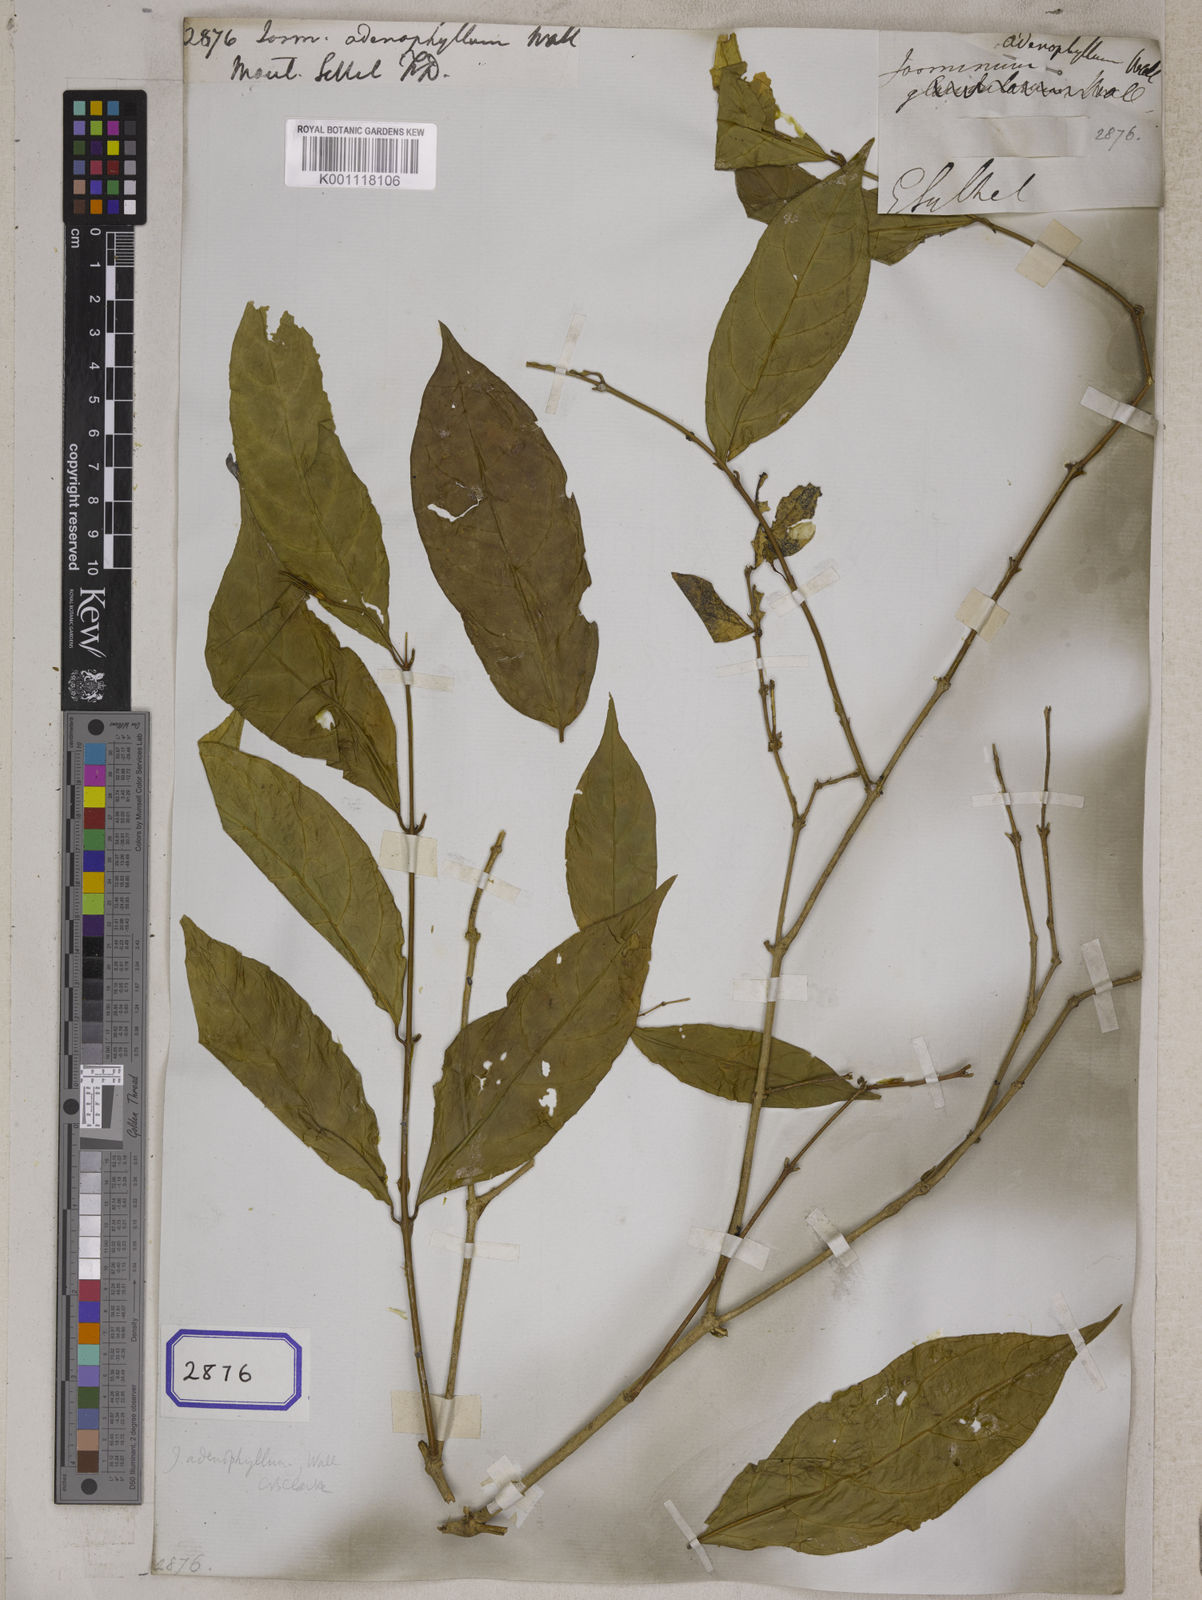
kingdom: Plantae
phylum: Tracheophyta
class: Magnoliopsida
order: Lamiales
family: Oleaceae
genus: Jasminum
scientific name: Jasminum
